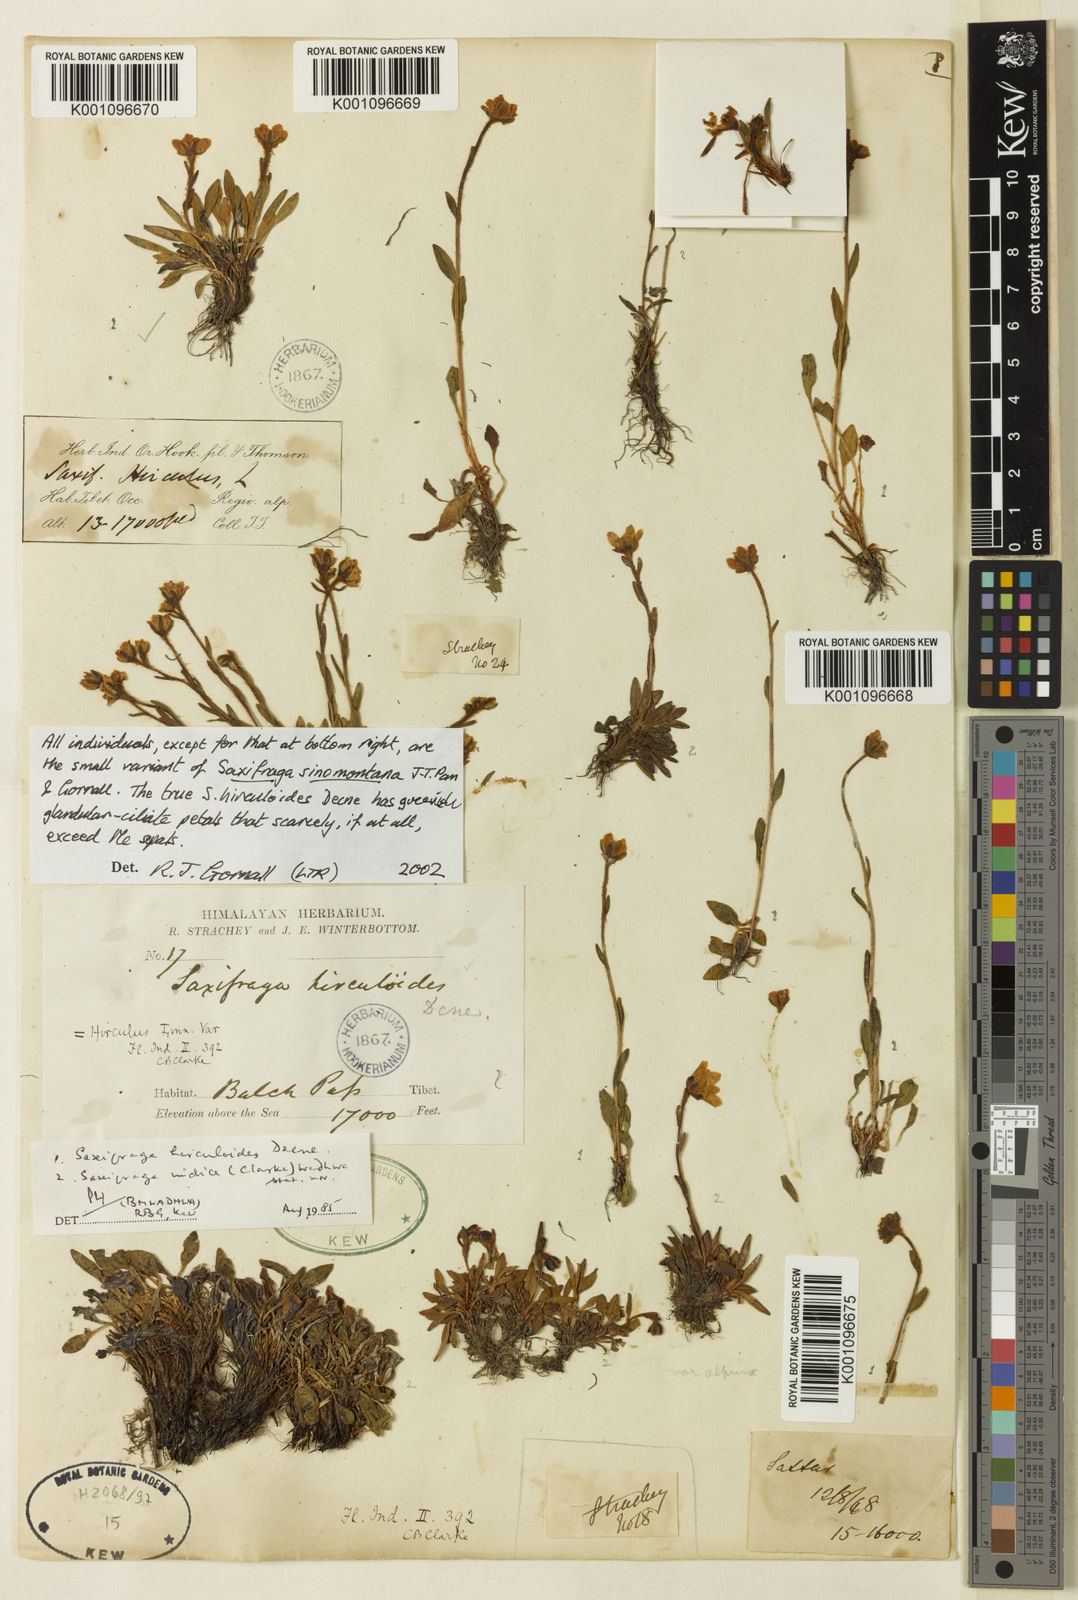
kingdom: Plantae
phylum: Tracheophyta
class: Magnoliopsida
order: Saxifragales
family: Saxifragaceae
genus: Saxifraga
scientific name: Saxifraga
